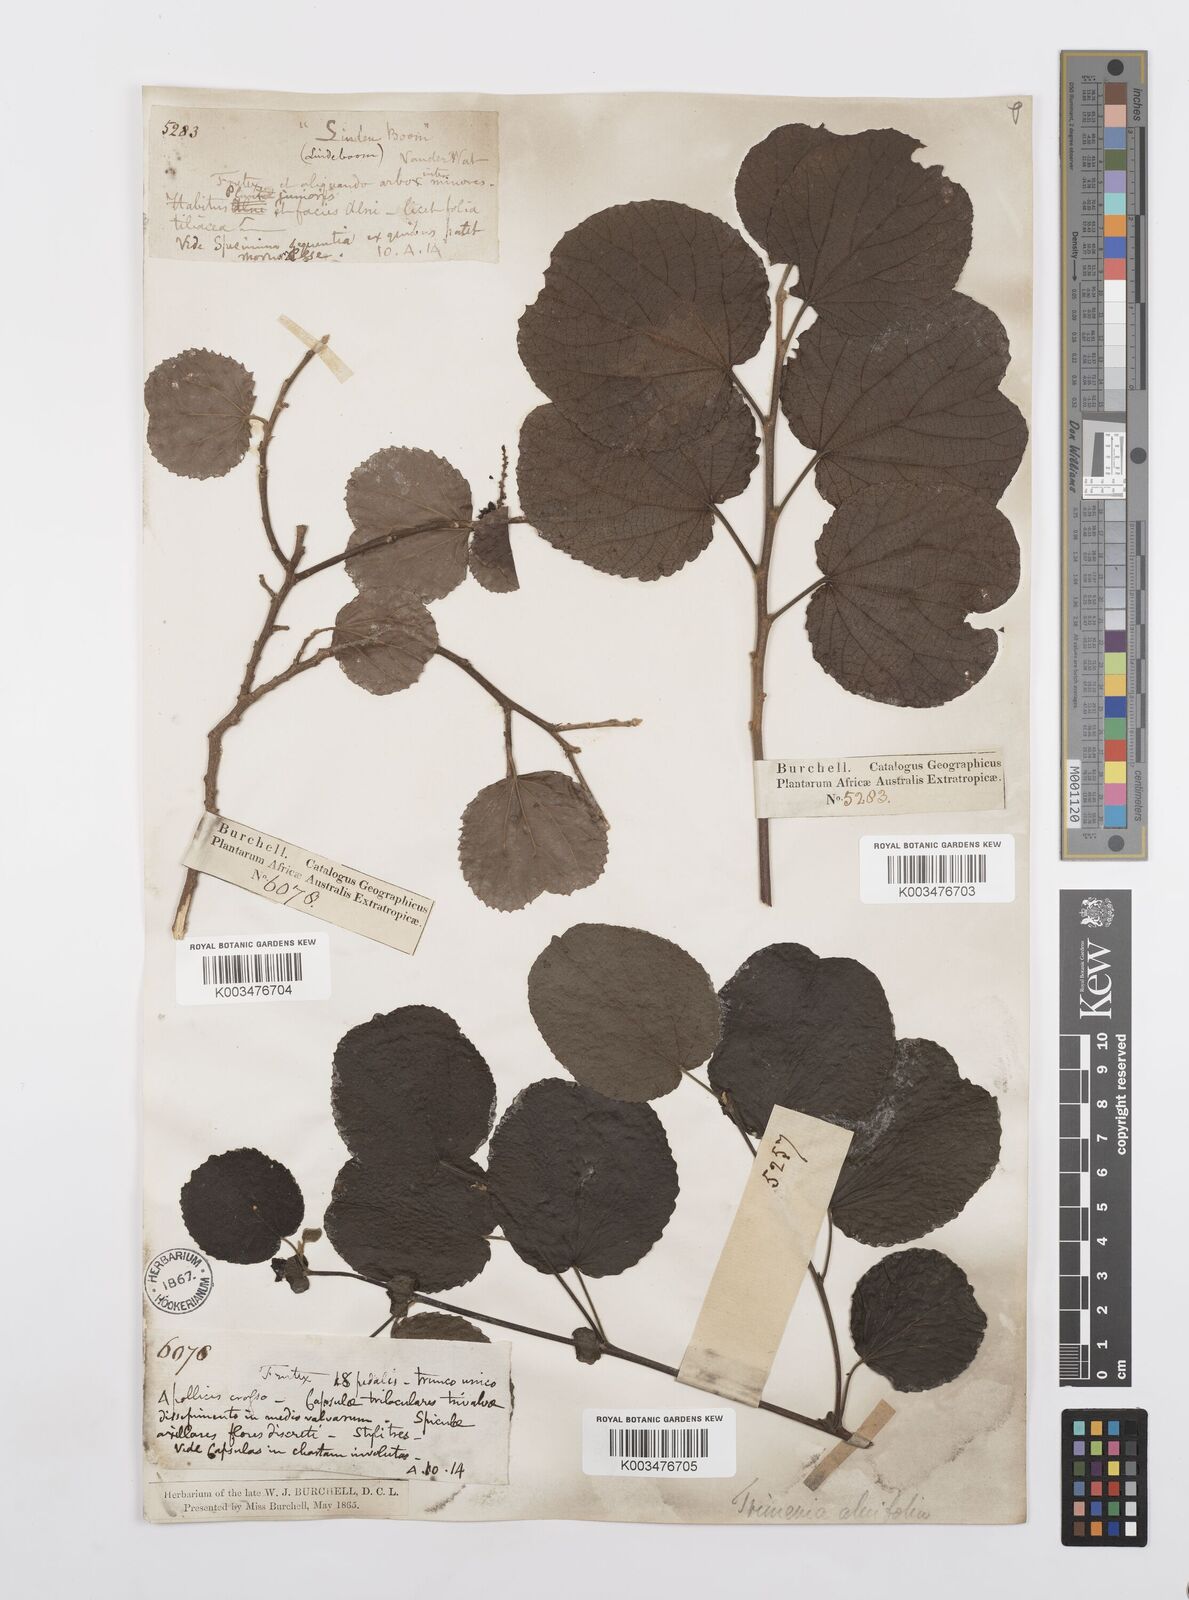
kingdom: Plantae
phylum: Tracheophyta
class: Magnoliopsida
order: Malpighiales
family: Salicaceae
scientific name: Salicaceae
